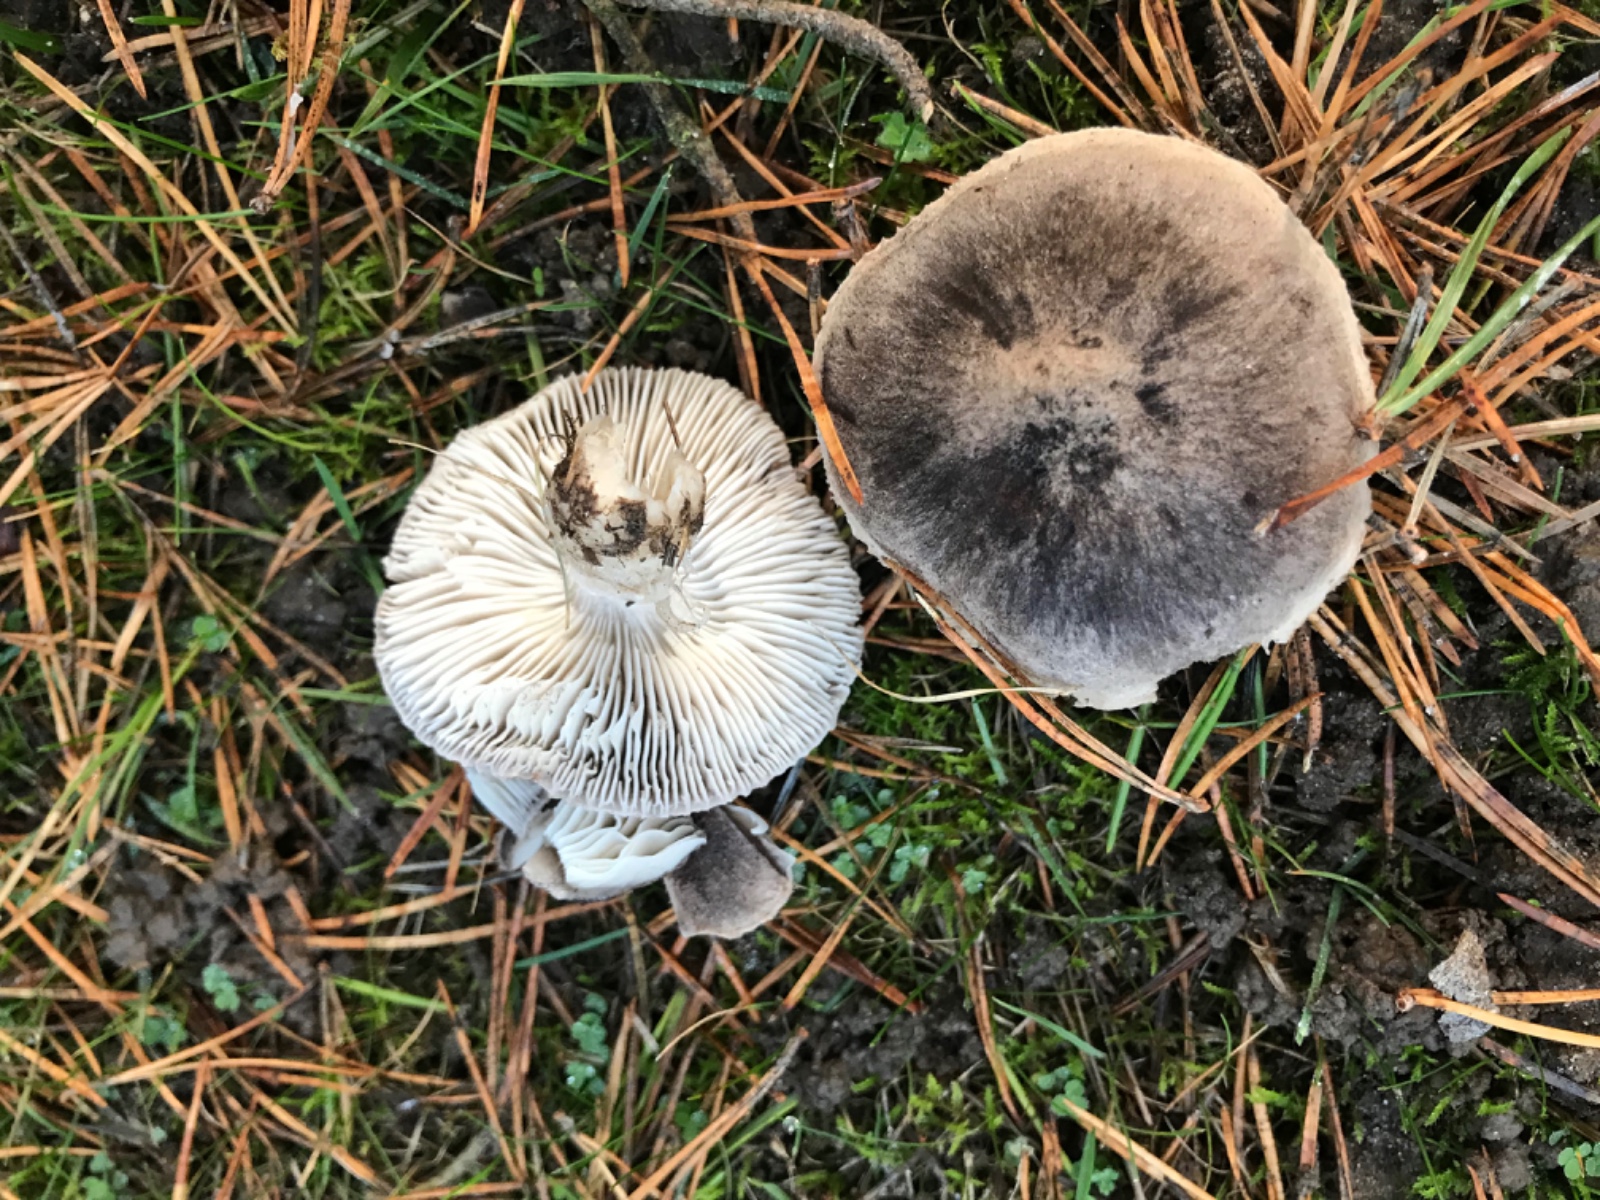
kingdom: Fungi
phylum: Basidiomycota
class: Agaricomycetes
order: Agaricales
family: Tricholomataceae
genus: Tricholoma
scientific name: Tricholoma terreum
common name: jordfarvet ridderhat
